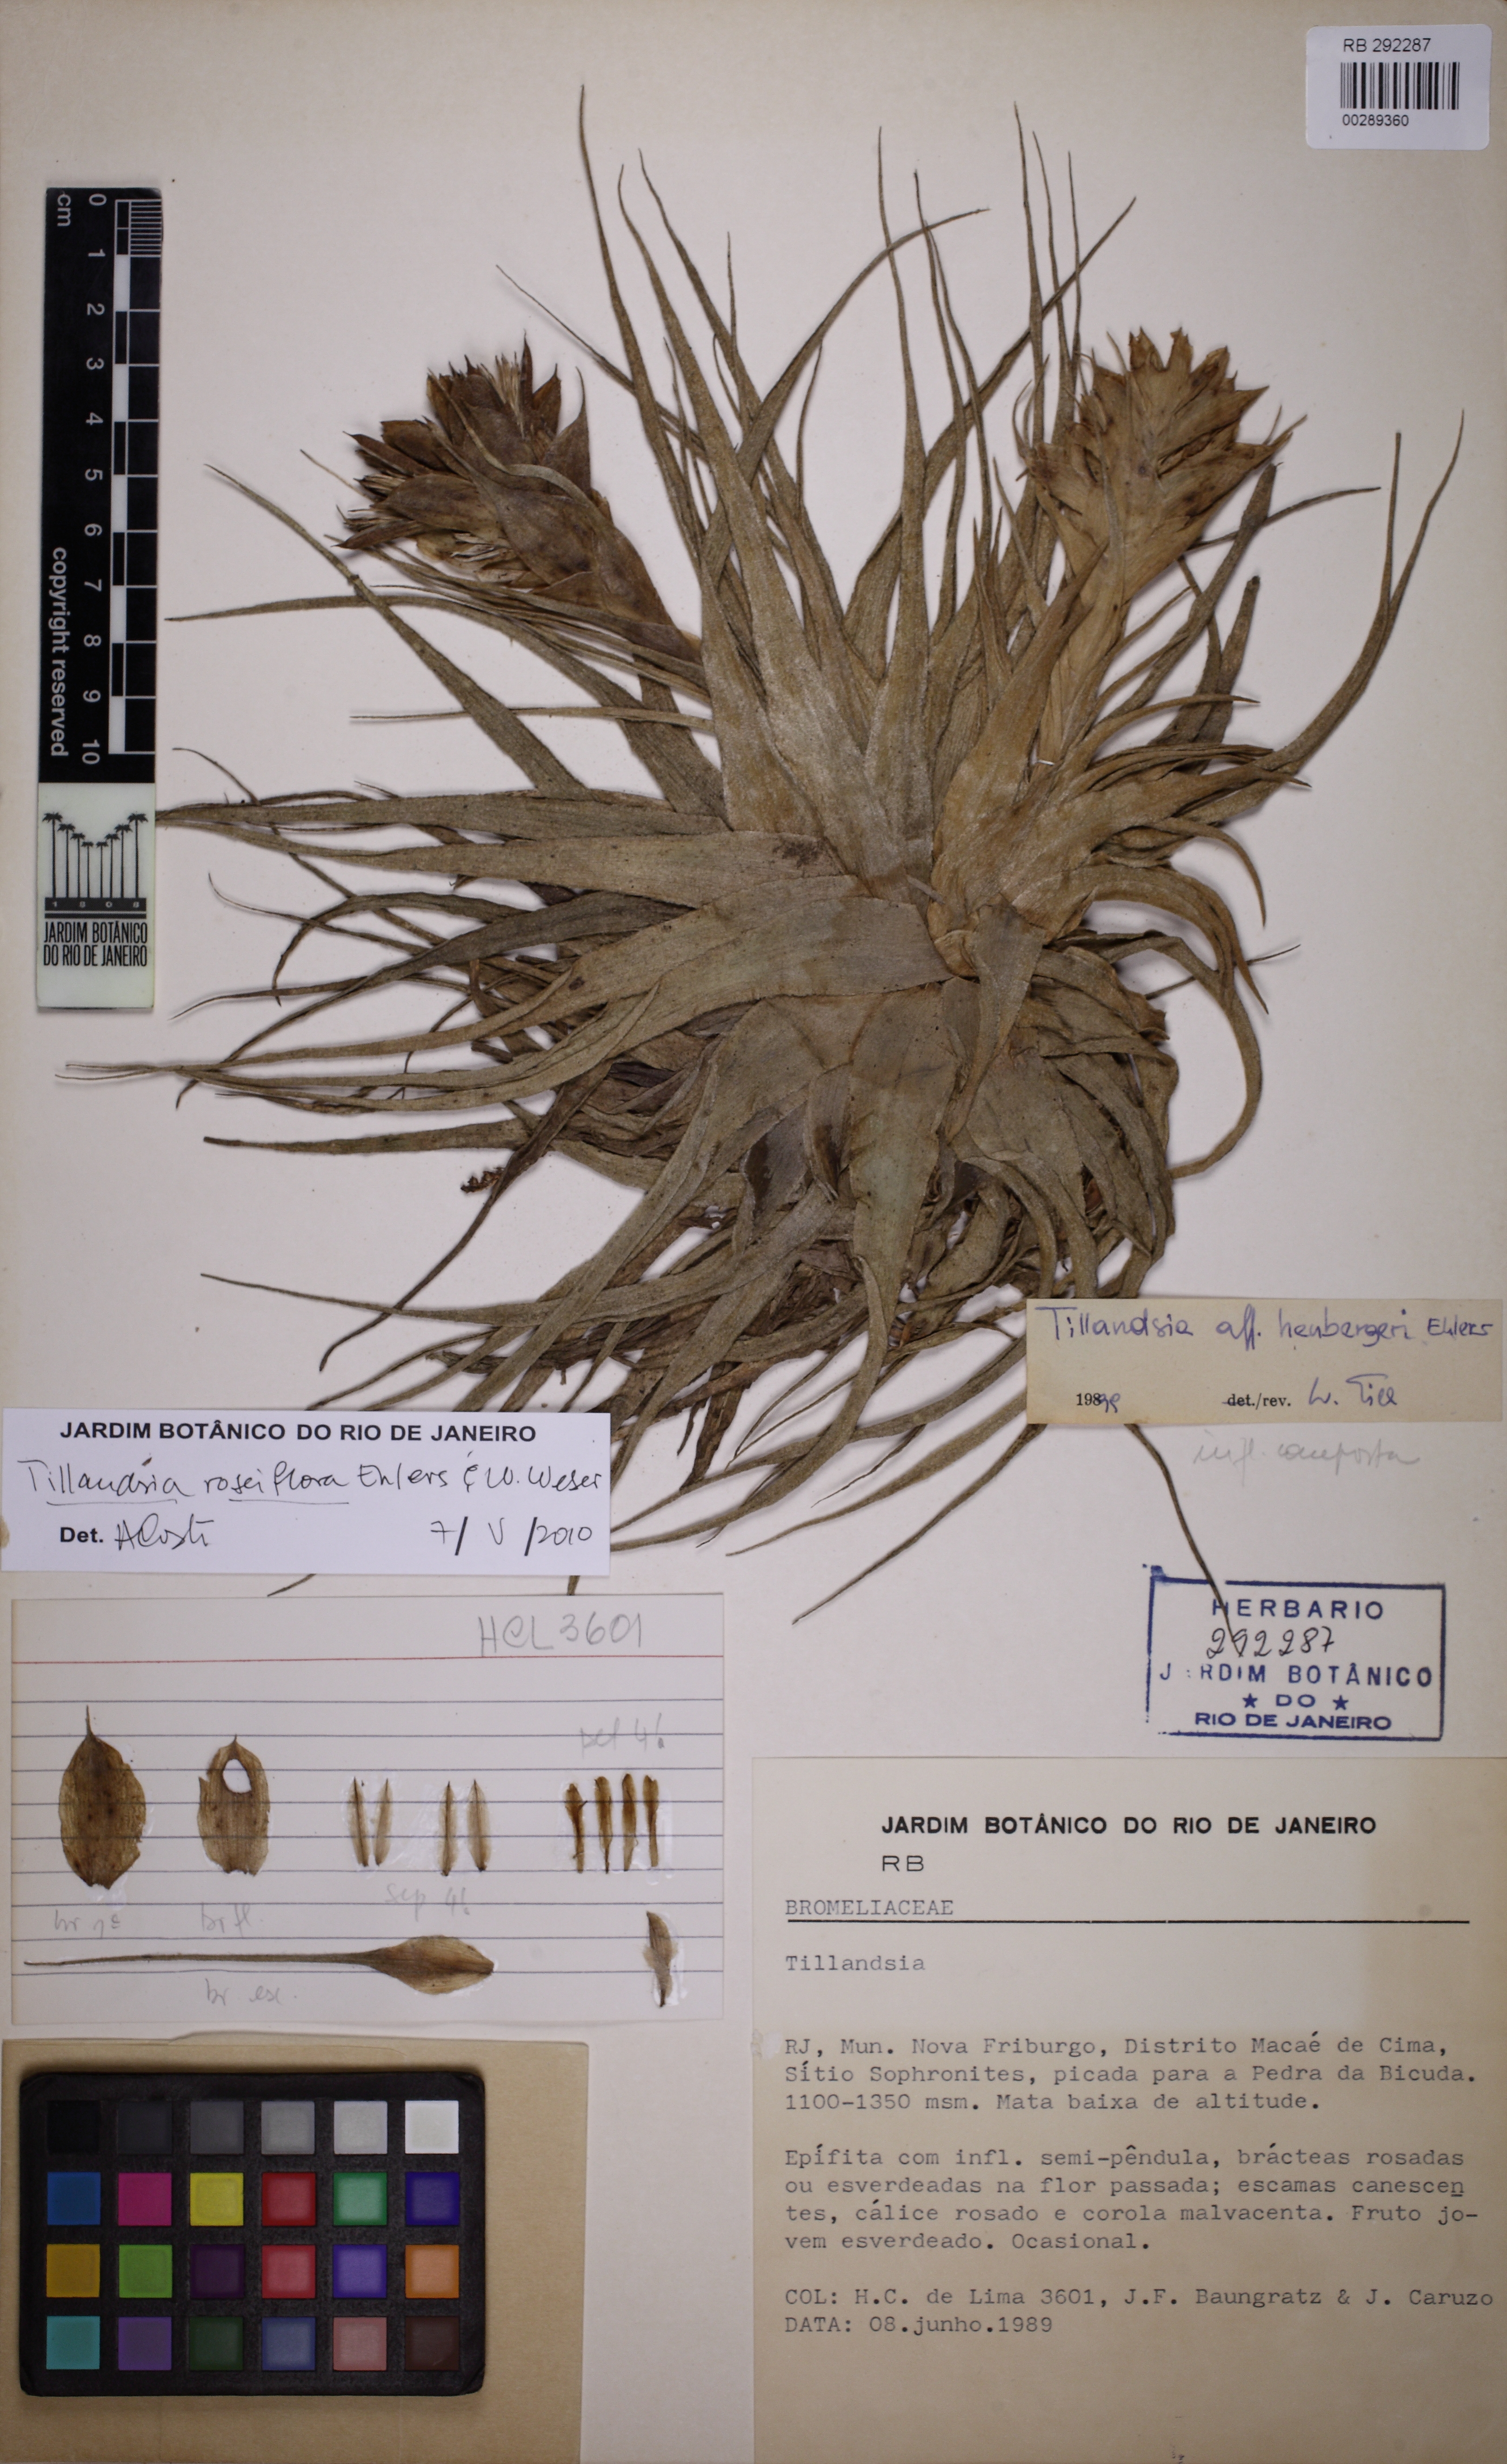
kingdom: Plantae
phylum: Tracheophyta
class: Liliopsida
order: Poales
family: Bromeliaceae
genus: Tillandsia
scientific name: Tillandsia roseiflora
